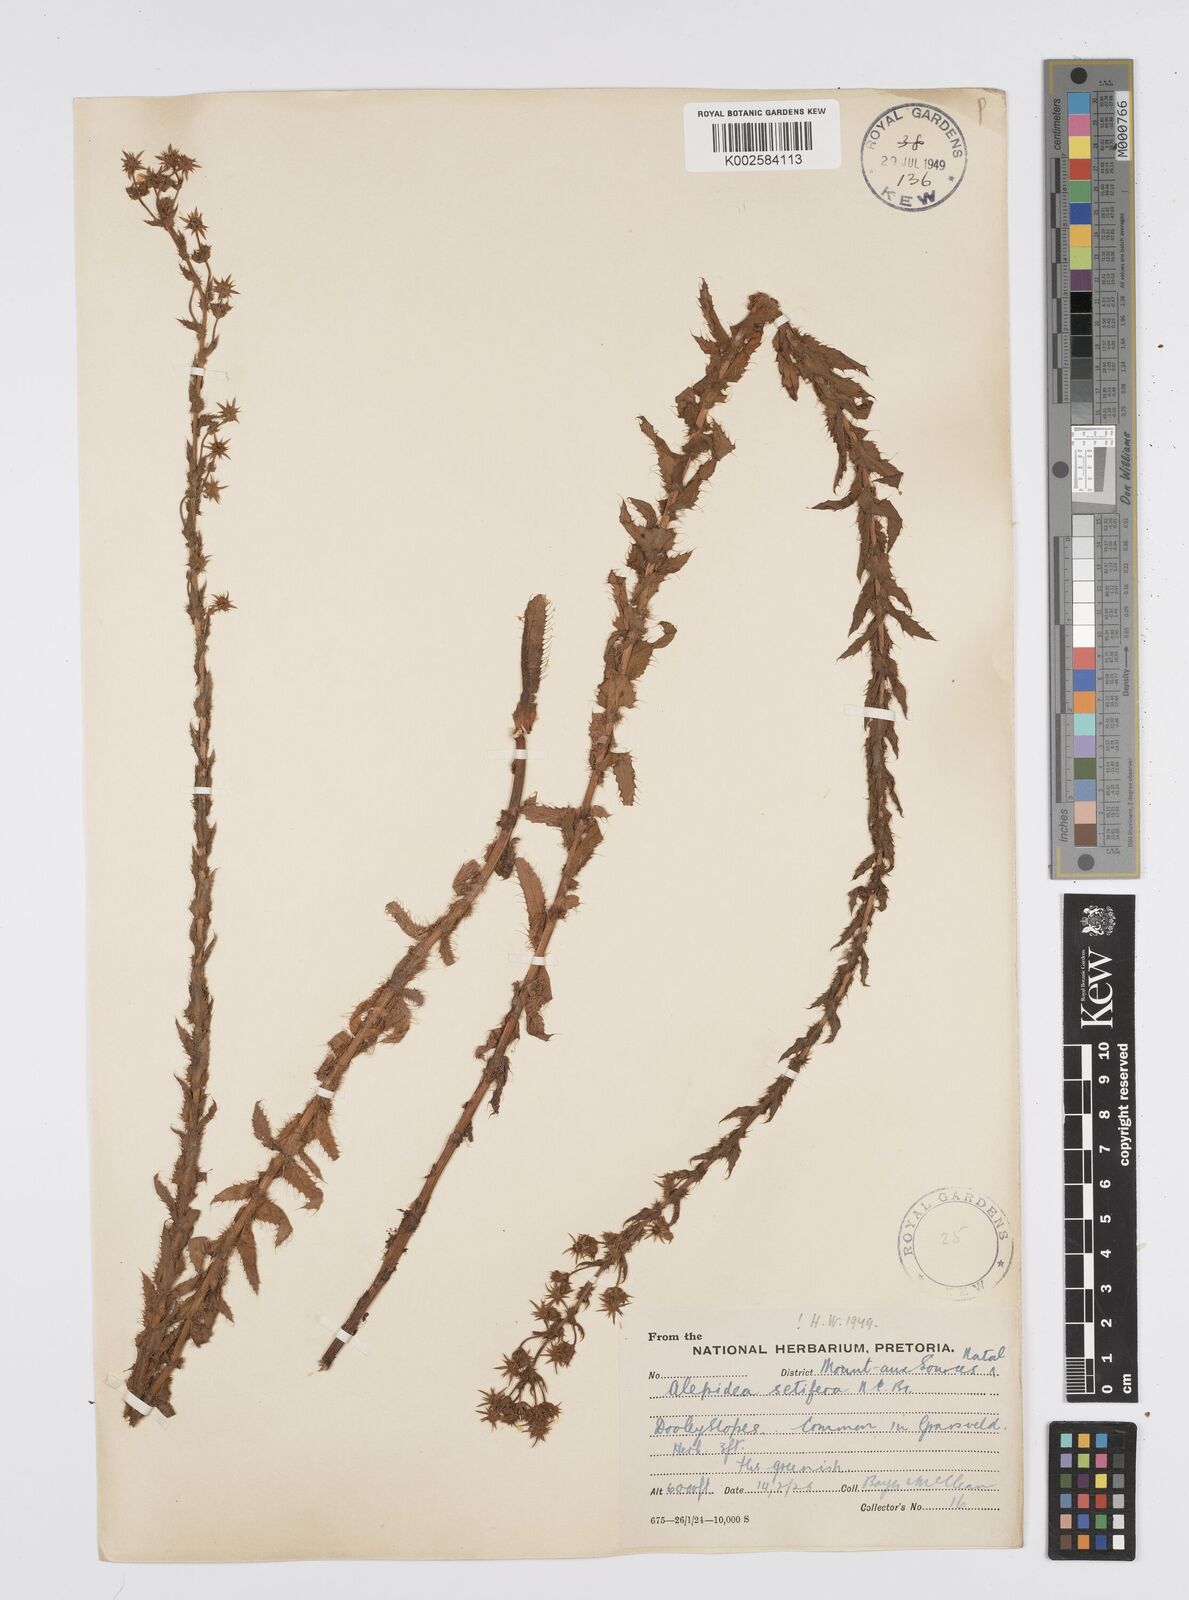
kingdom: Plantae
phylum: Tracheophyta
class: Magnoliopsida
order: Apiales
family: Apiaceae
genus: Alepidea
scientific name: Alepidea setifera
